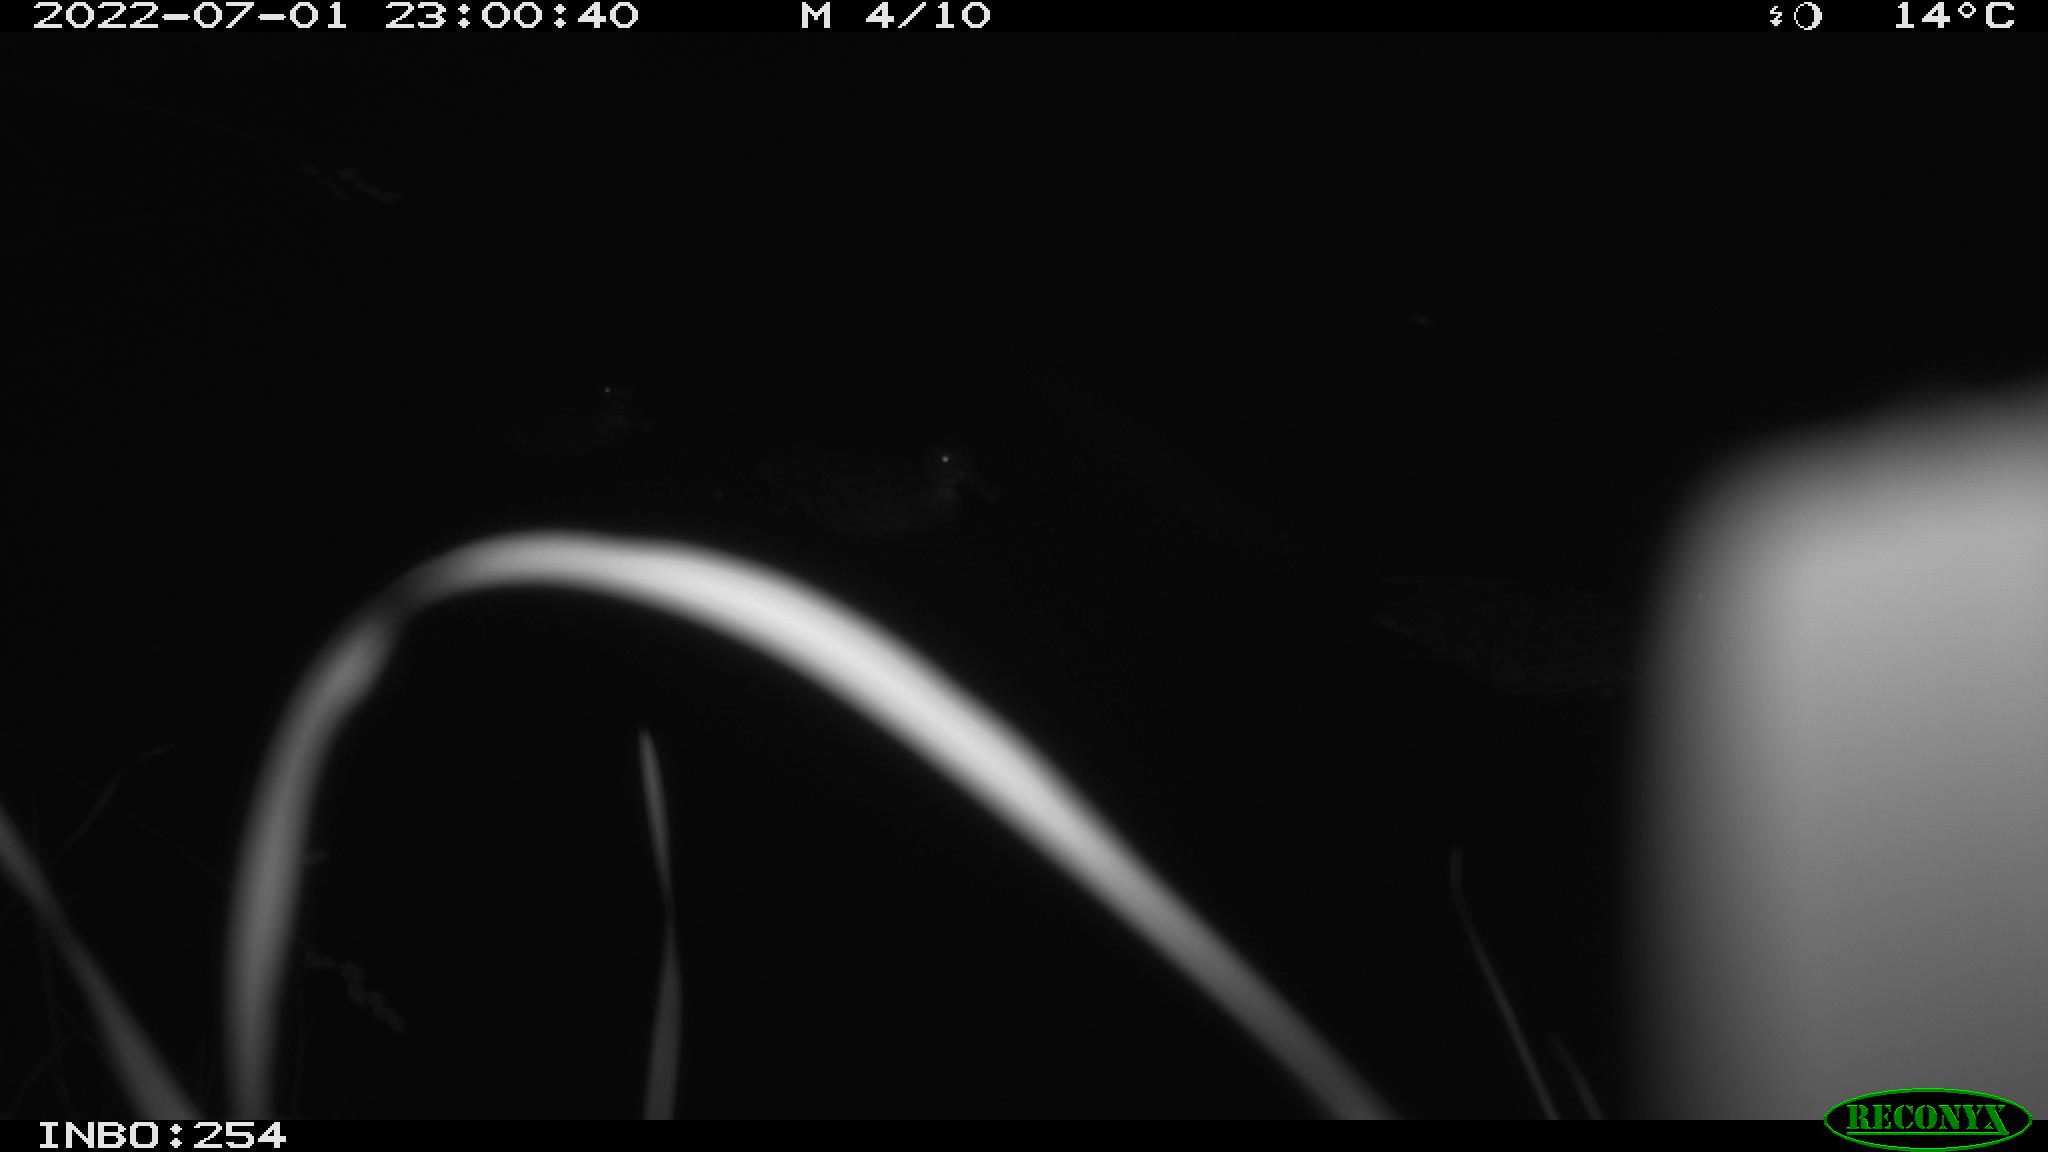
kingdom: Animalia
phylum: Chordata
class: Aves
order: Anseriformes
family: Anatidae
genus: Anas
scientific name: Anas platyrhynchos
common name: Mallard
